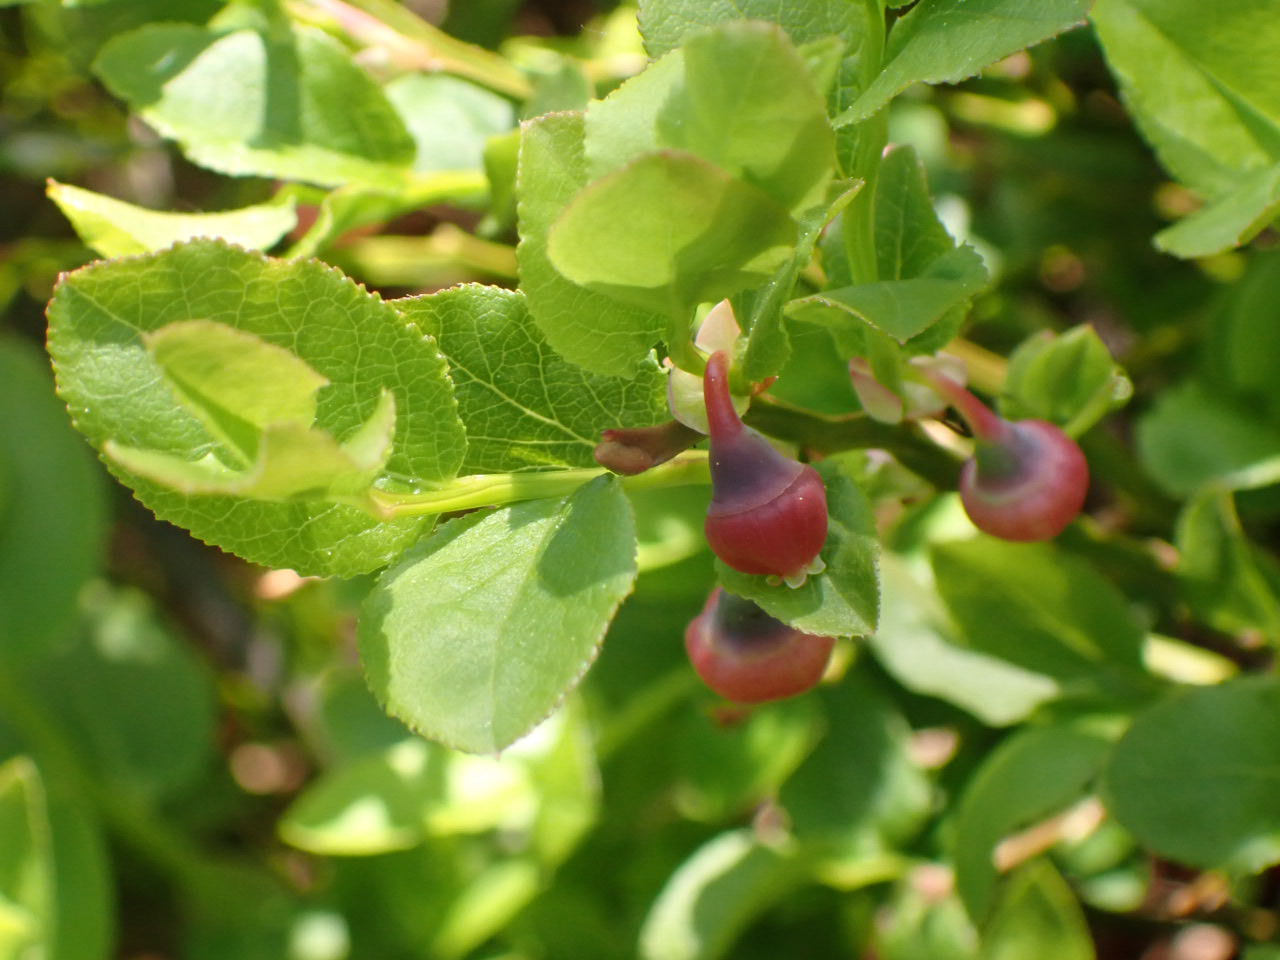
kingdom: Plantae
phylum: Tracheophyta
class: Magnoliopsida
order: Ericales
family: Ericaceae
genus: Vaccinium
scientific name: Vaccinium myrtillus
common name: Blåbær
